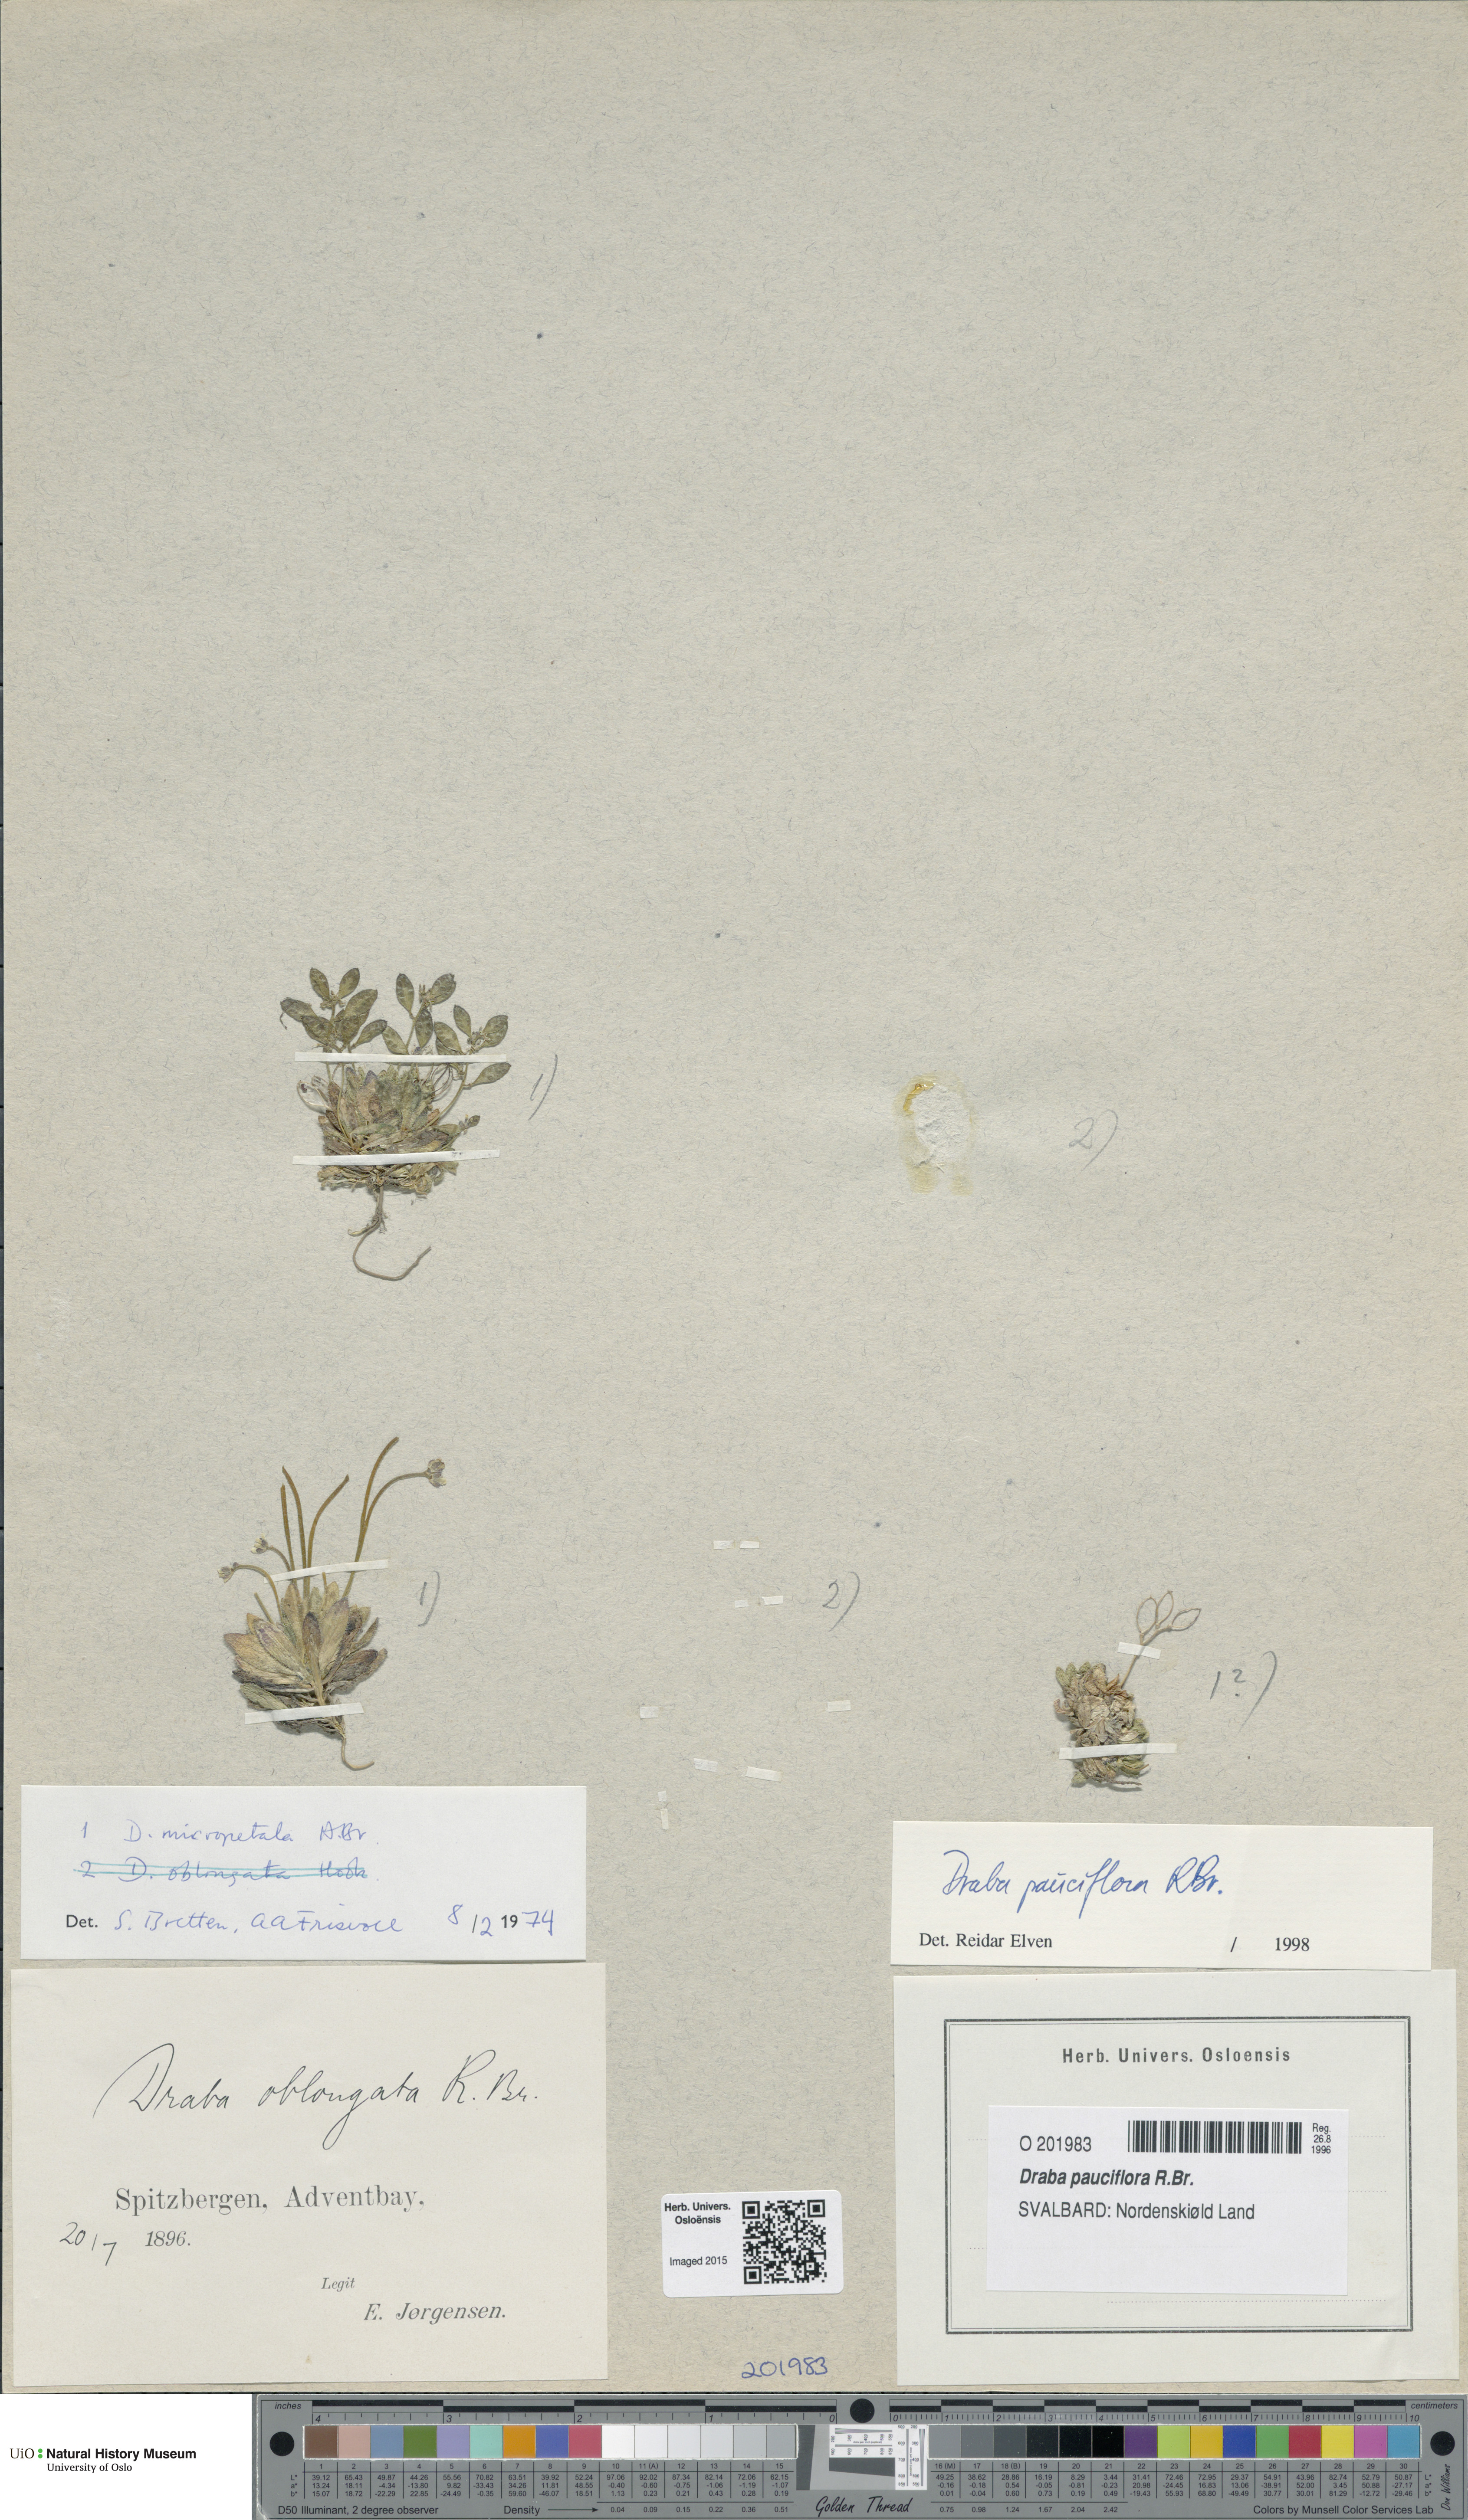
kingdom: Plantae
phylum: Tracheophyta
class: Magnoliopsida
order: Brassicales
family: Brassicaceae
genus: Draba
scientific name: Draba pauciflora
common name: Few-flowered draba
